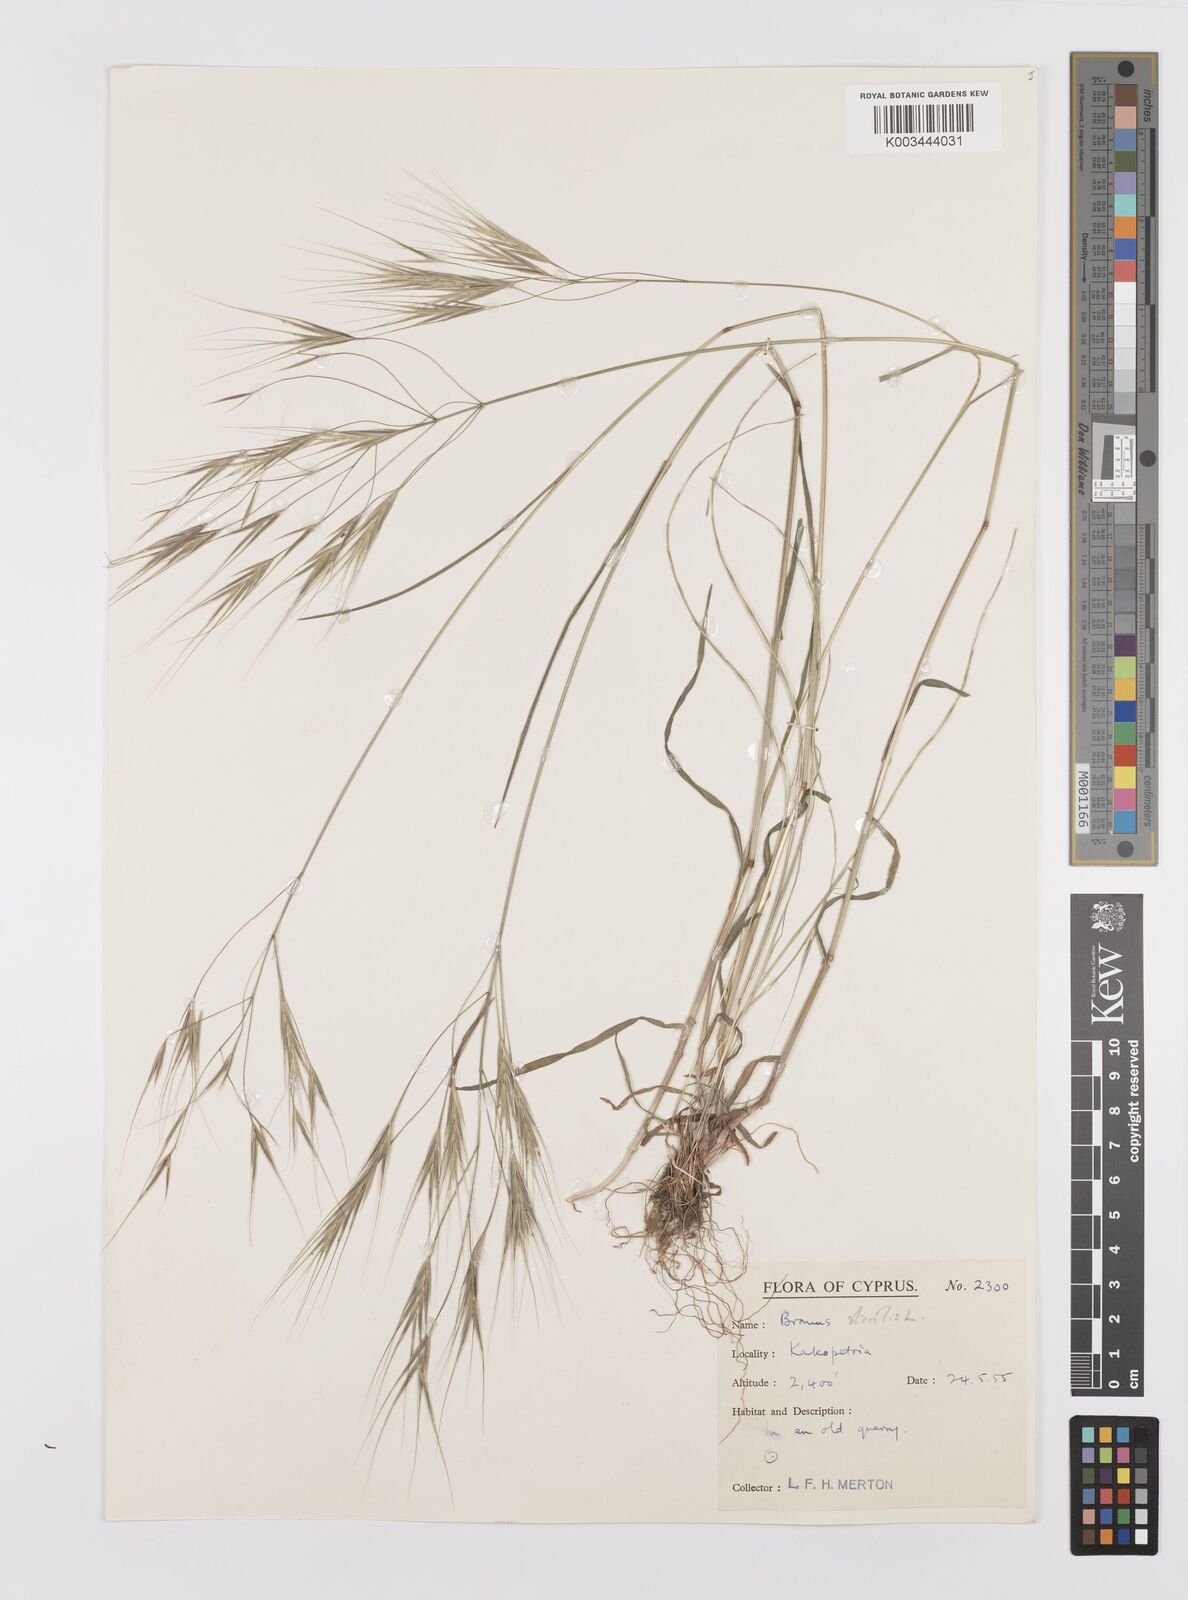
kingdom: Plantae
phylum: Tracheophyta
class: Liliopsida
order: Poales
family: Poaceae
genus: Bromus
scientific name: Bromus sterilis
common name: Poverty brome
